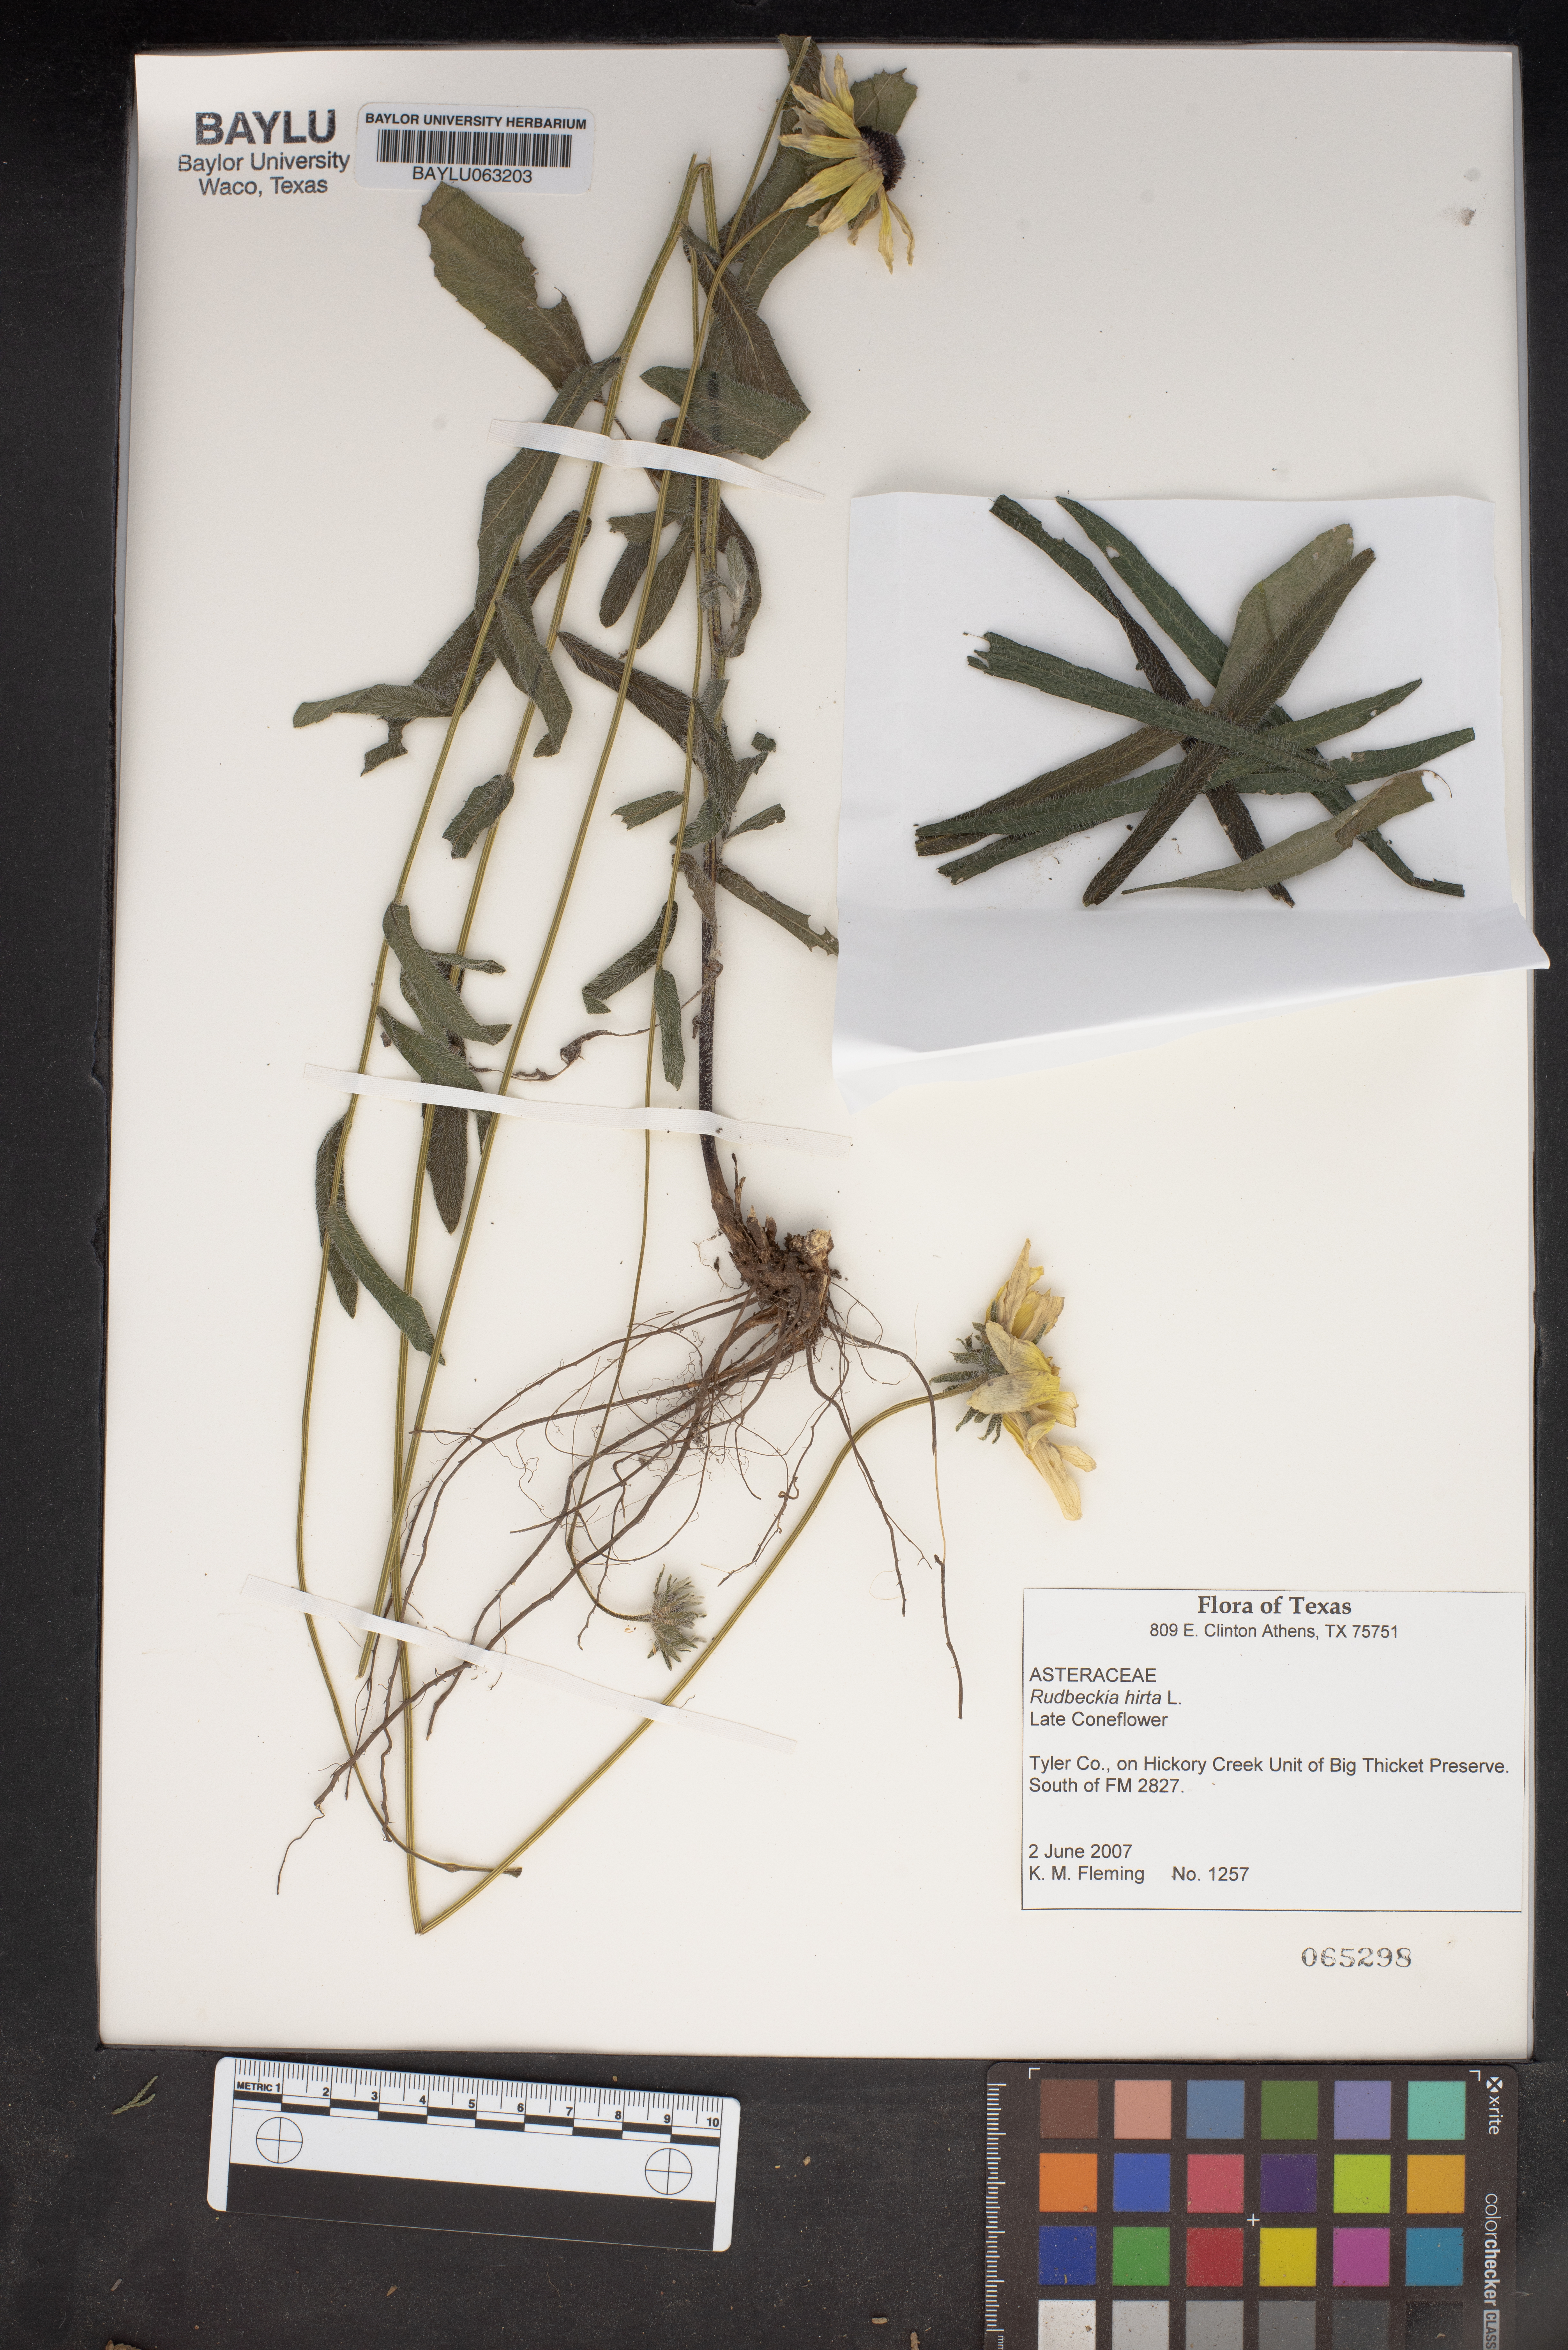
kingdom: Plantae
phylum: Tracheophyta
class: Magnoliopsida
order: Asterales
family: Asteraceae
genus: Rudbeckia
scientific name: Rudbeckia hirta
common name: Black-eyed-susan
